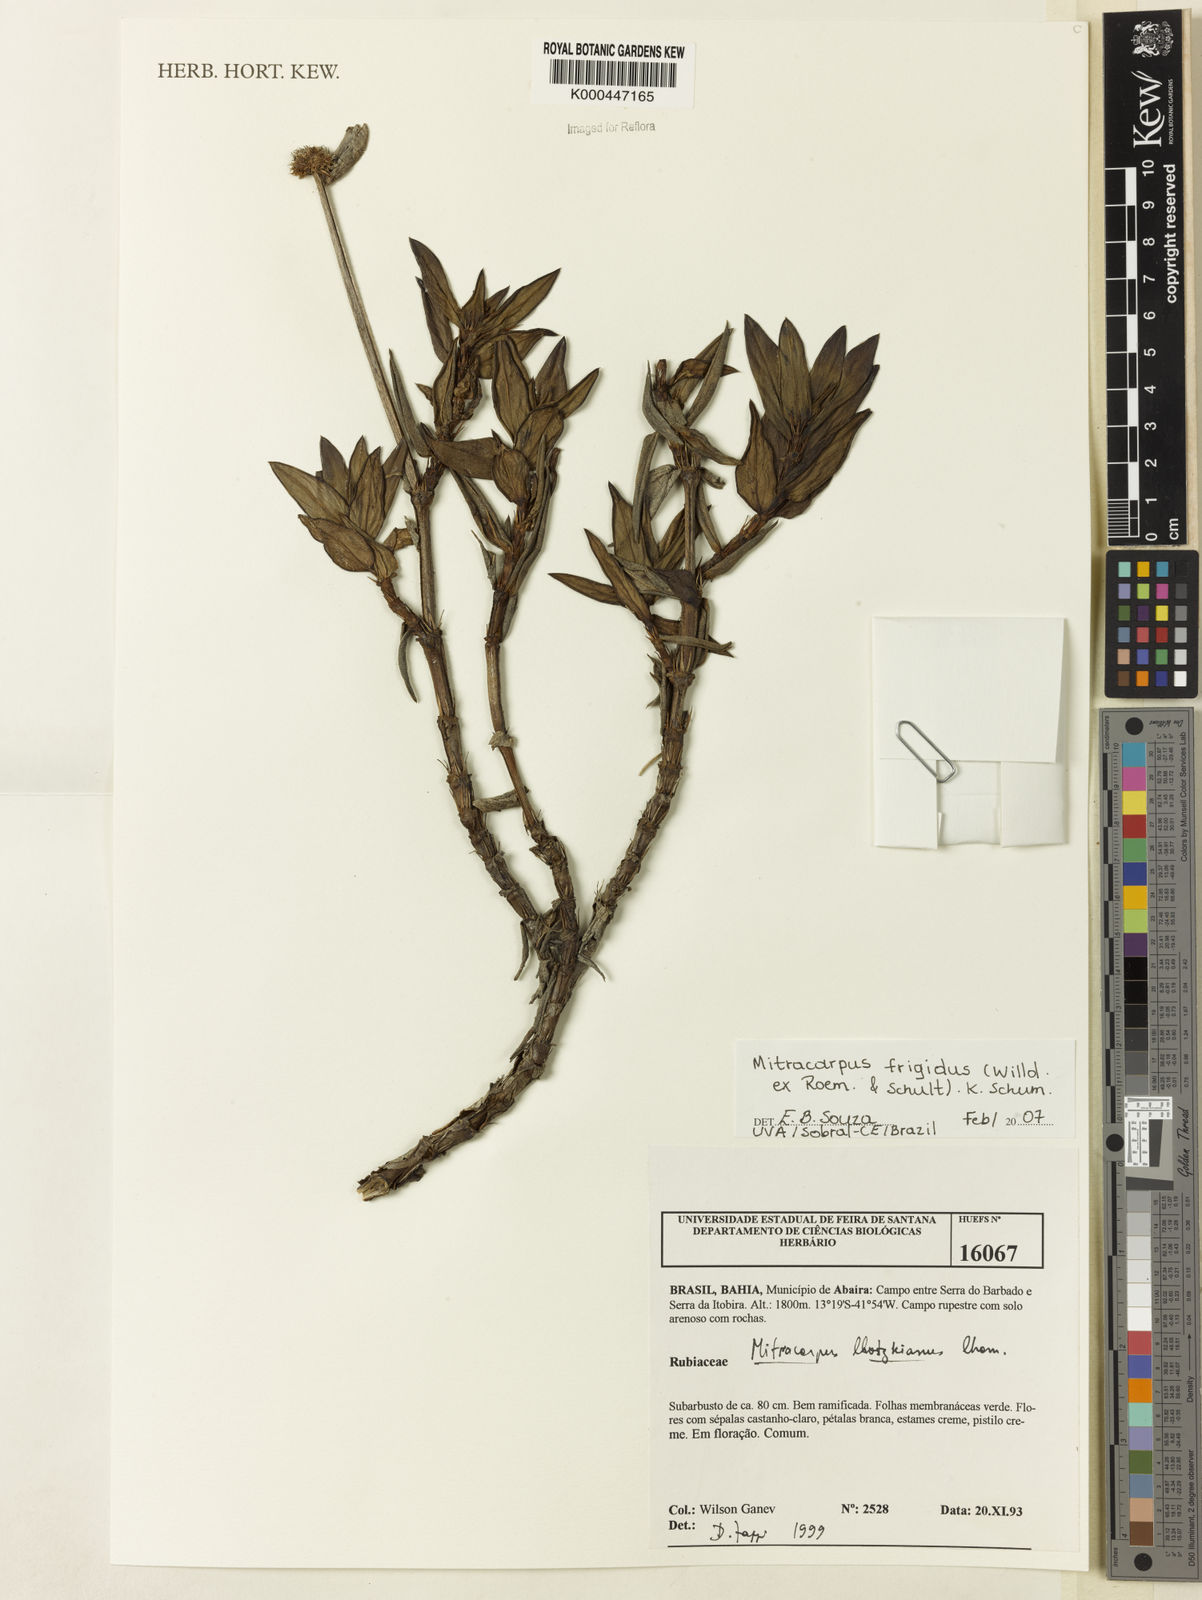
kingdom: Plantae
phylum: Tracheophyta
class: Magnoliopsida
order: Gentianales
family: Rubiaceae
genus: Mitracarpus
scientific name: Mitracarpus frigidus
